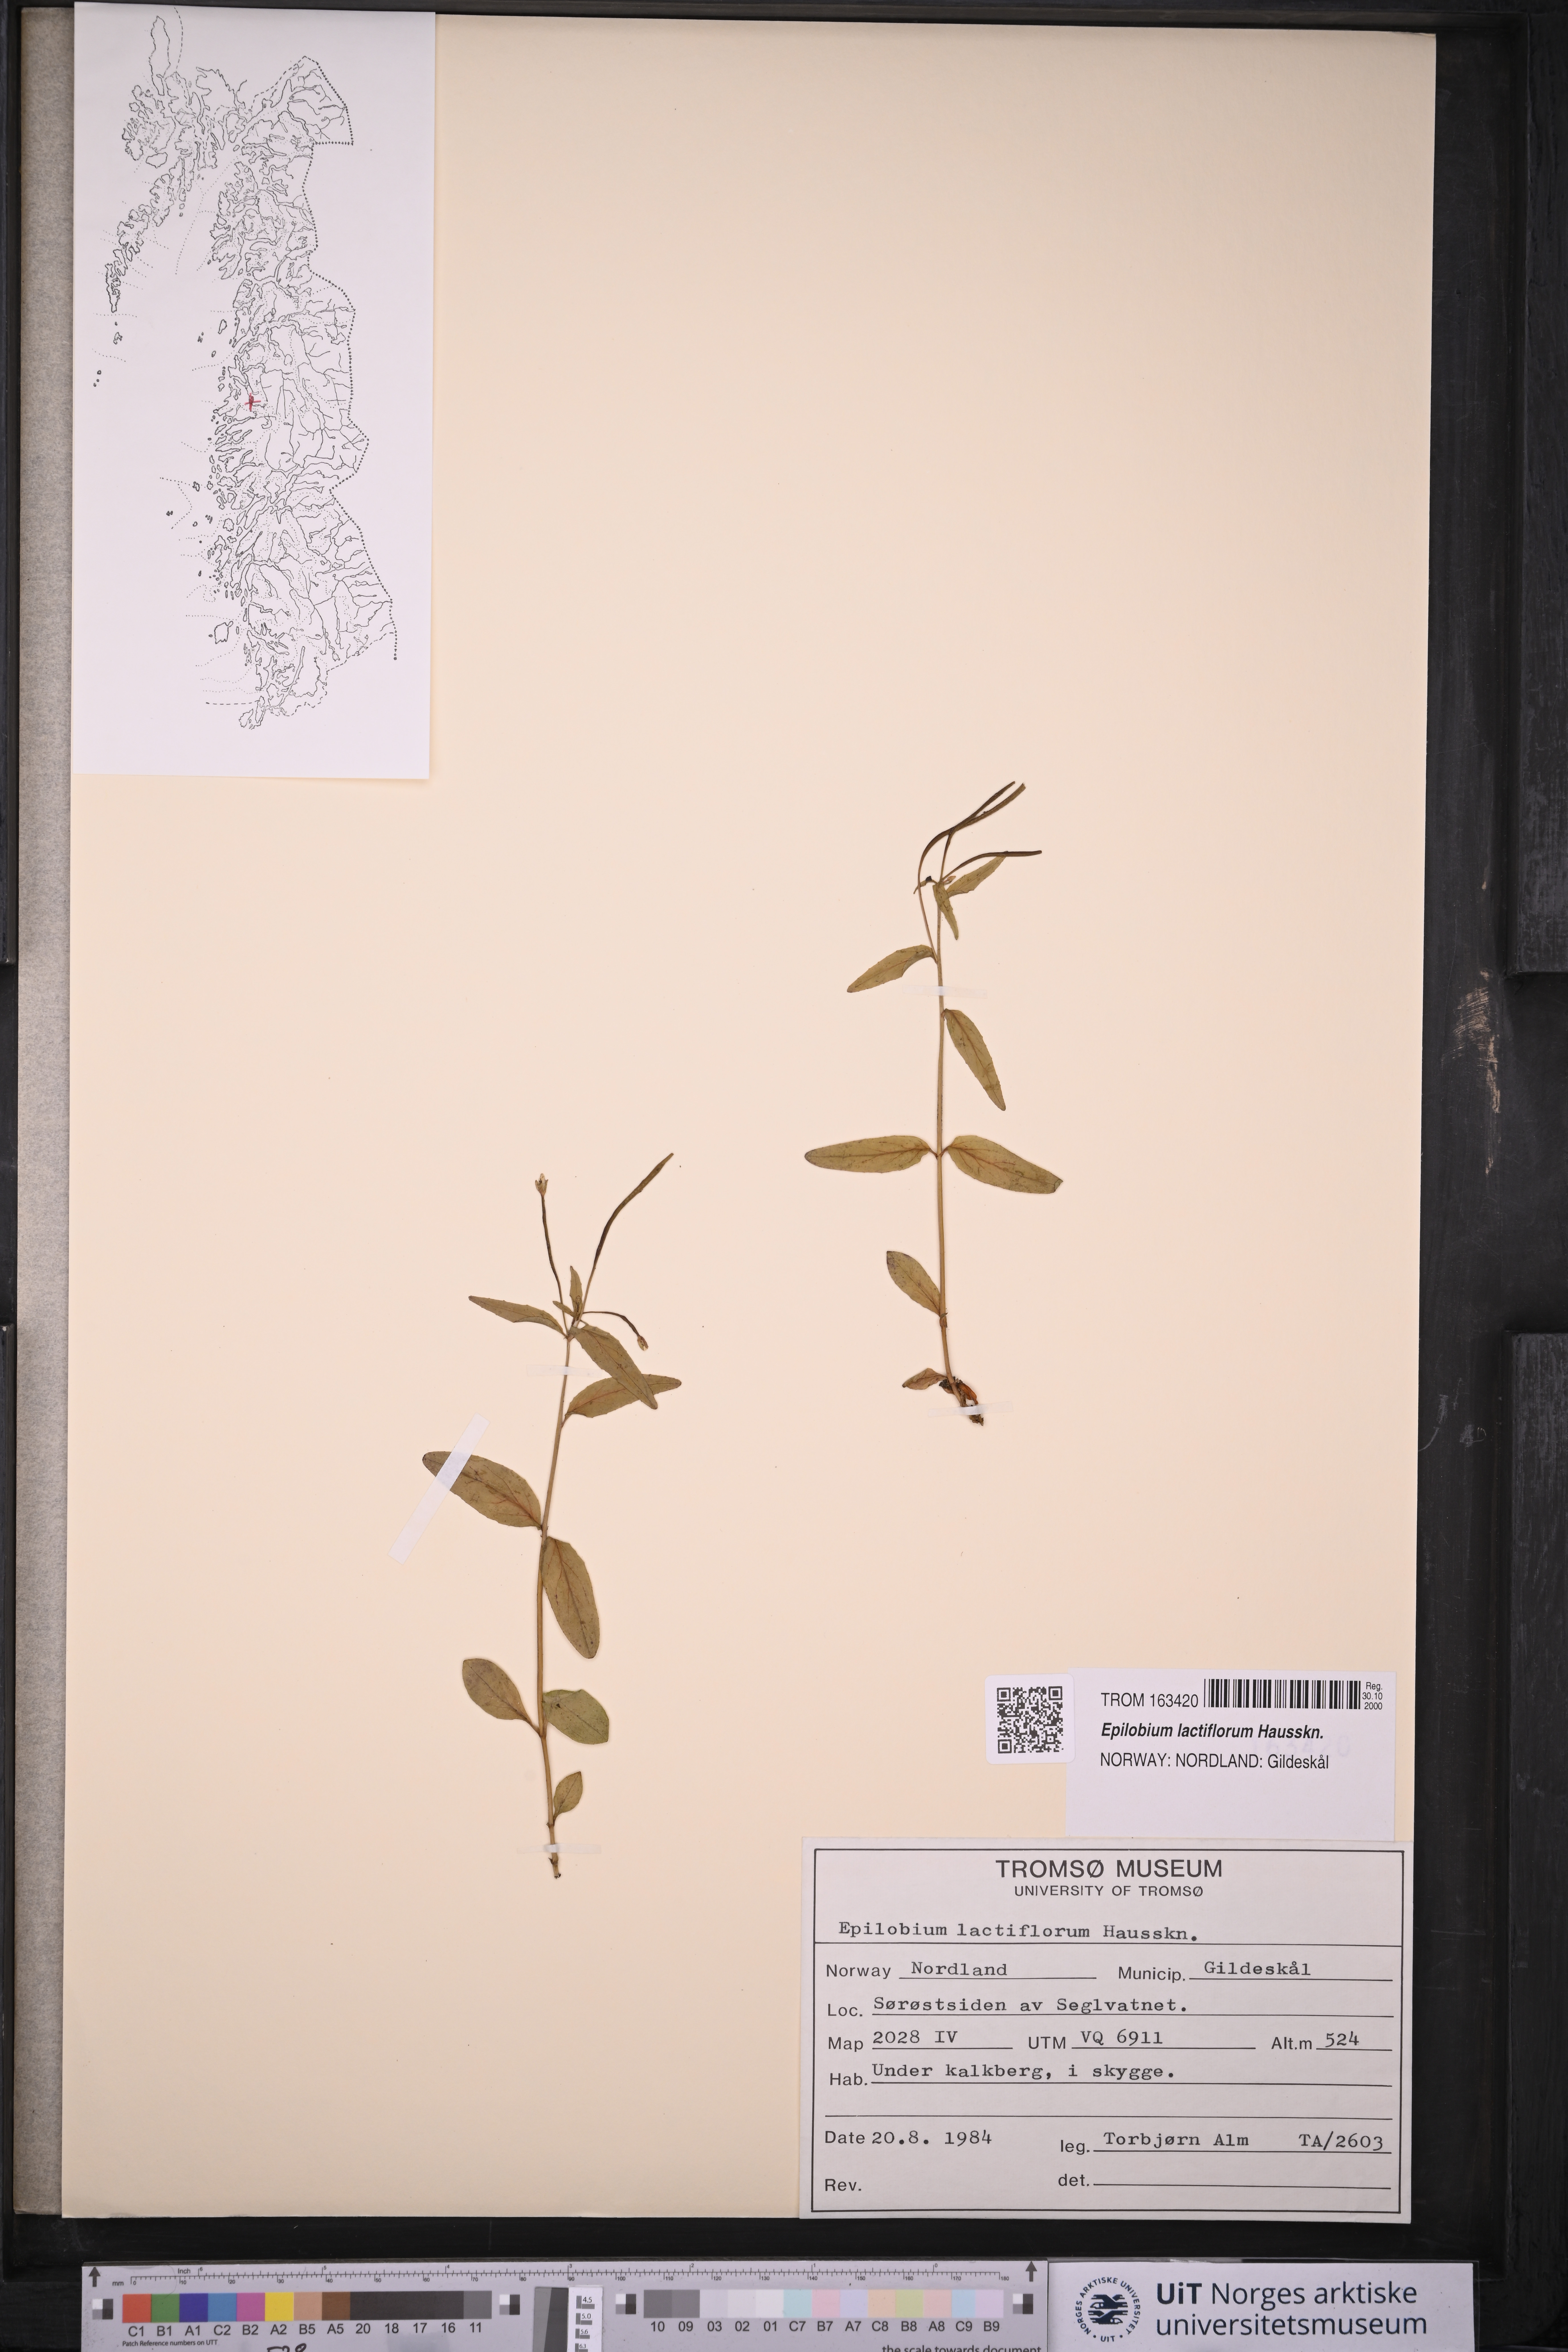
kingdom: Plantae
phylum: Tracheophyta
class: Magnoliopsida
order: Myrtales
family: Onagraceae
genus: Epilobium
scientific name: Epilobium lactiflorum
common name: Milkflower willowherb
